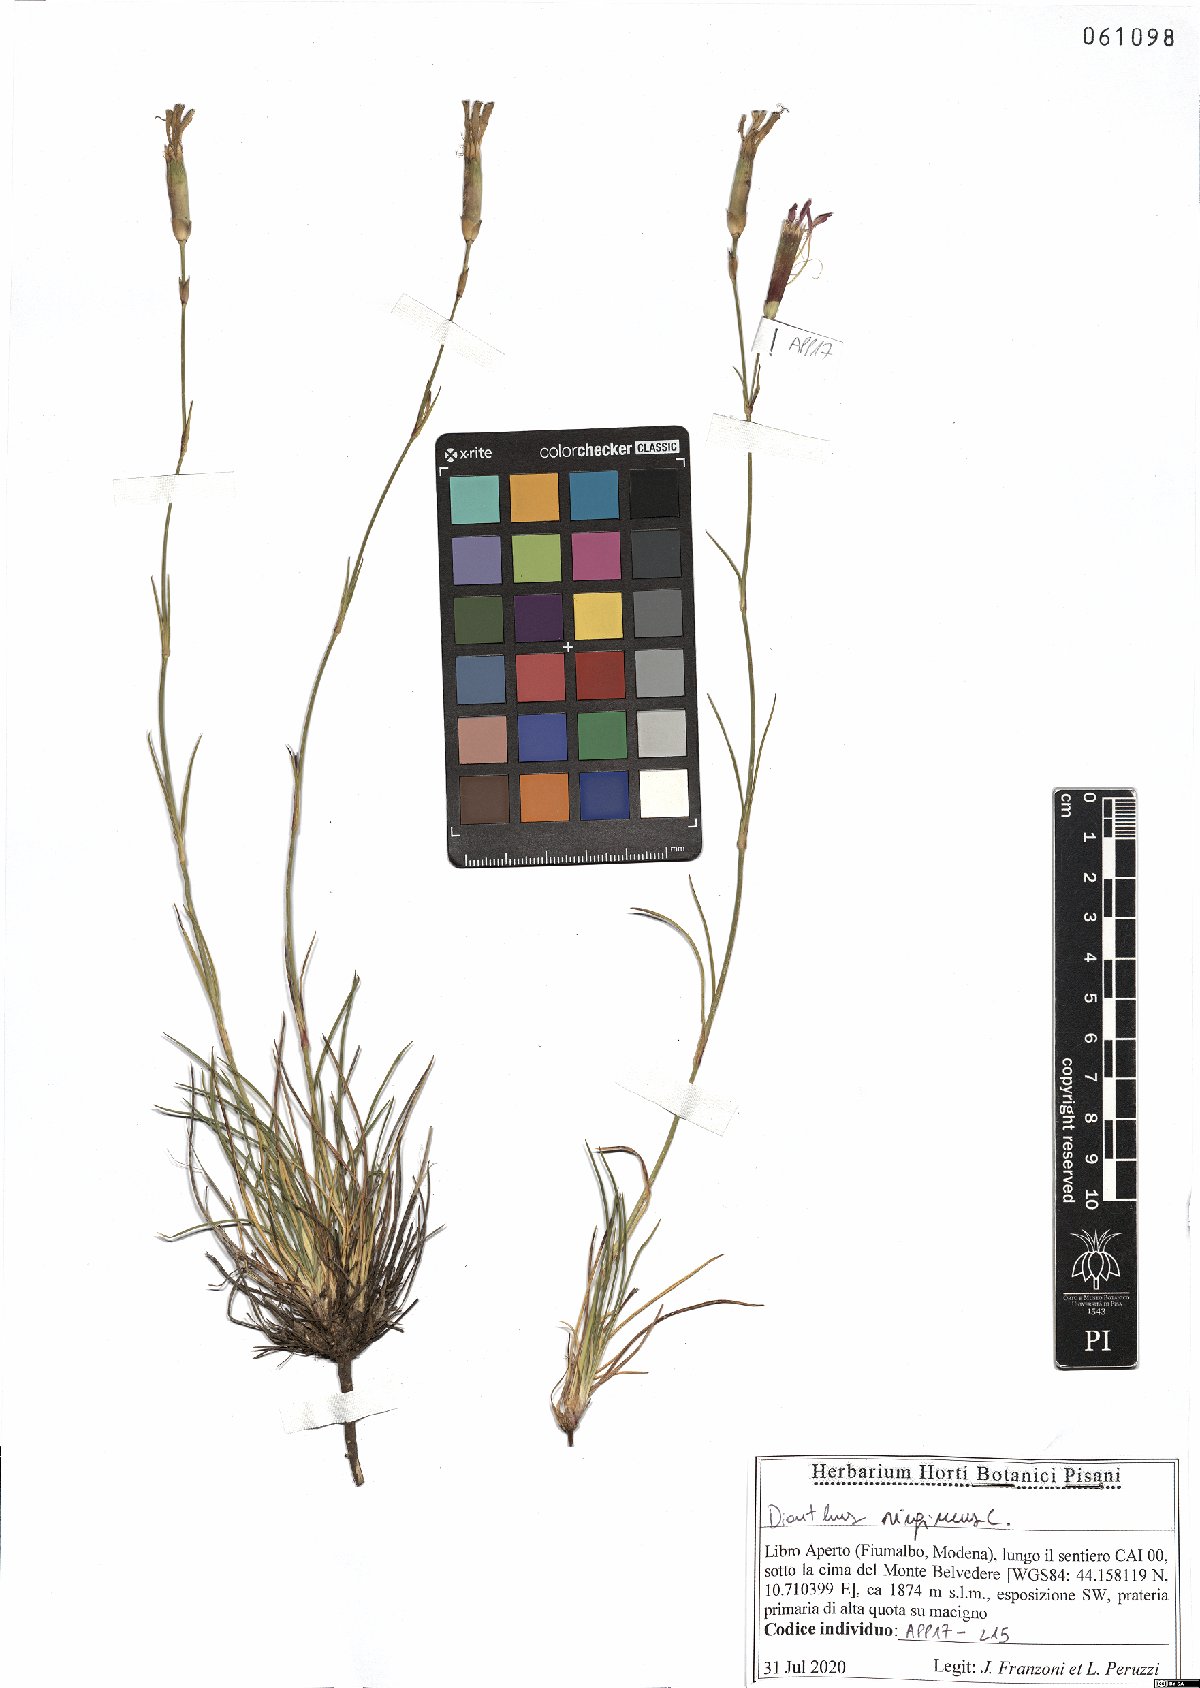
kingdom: Plantae
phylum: Tracheophyta
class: Magnoliopsida
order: Caryophyllales
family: Caryophyllaceae
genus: Dianthus
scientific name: Dianthus virgineus
